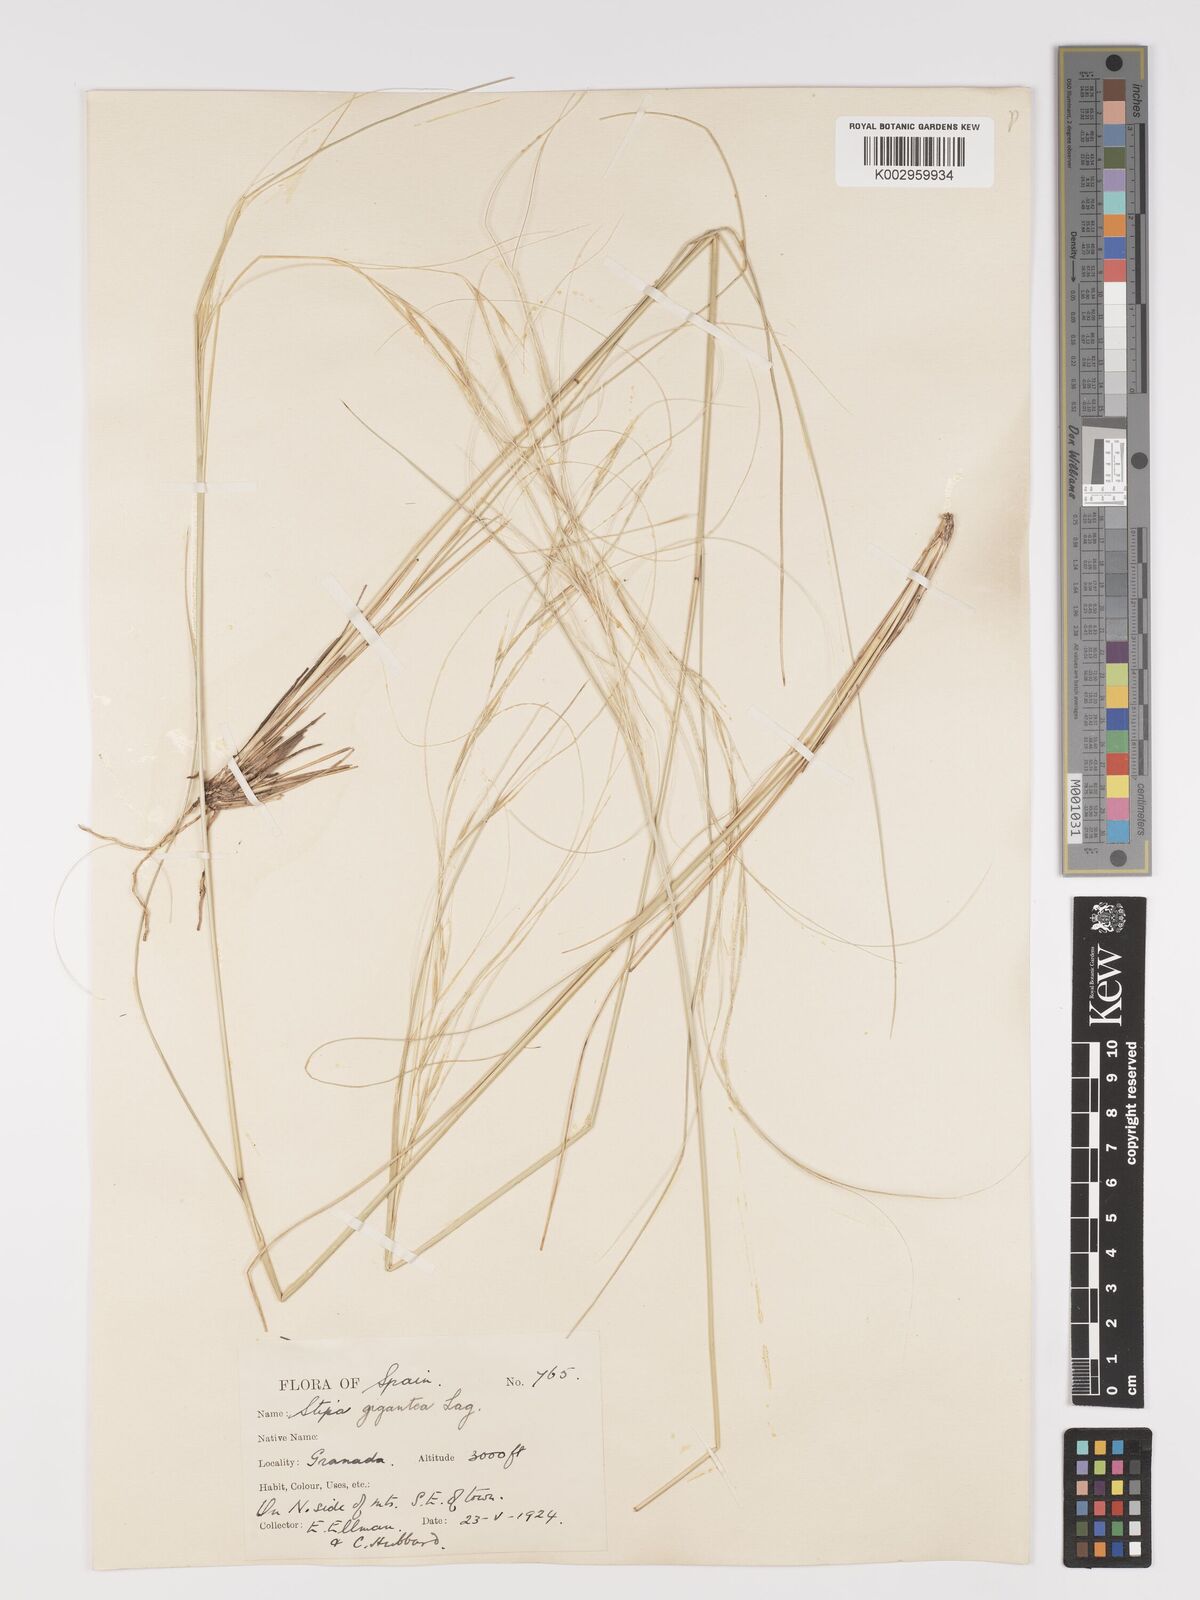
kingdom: Plantae
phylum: Tracheophyta
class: Liliopsida
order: Poales
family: Poaceae
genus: Stipa
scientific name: Stipa
